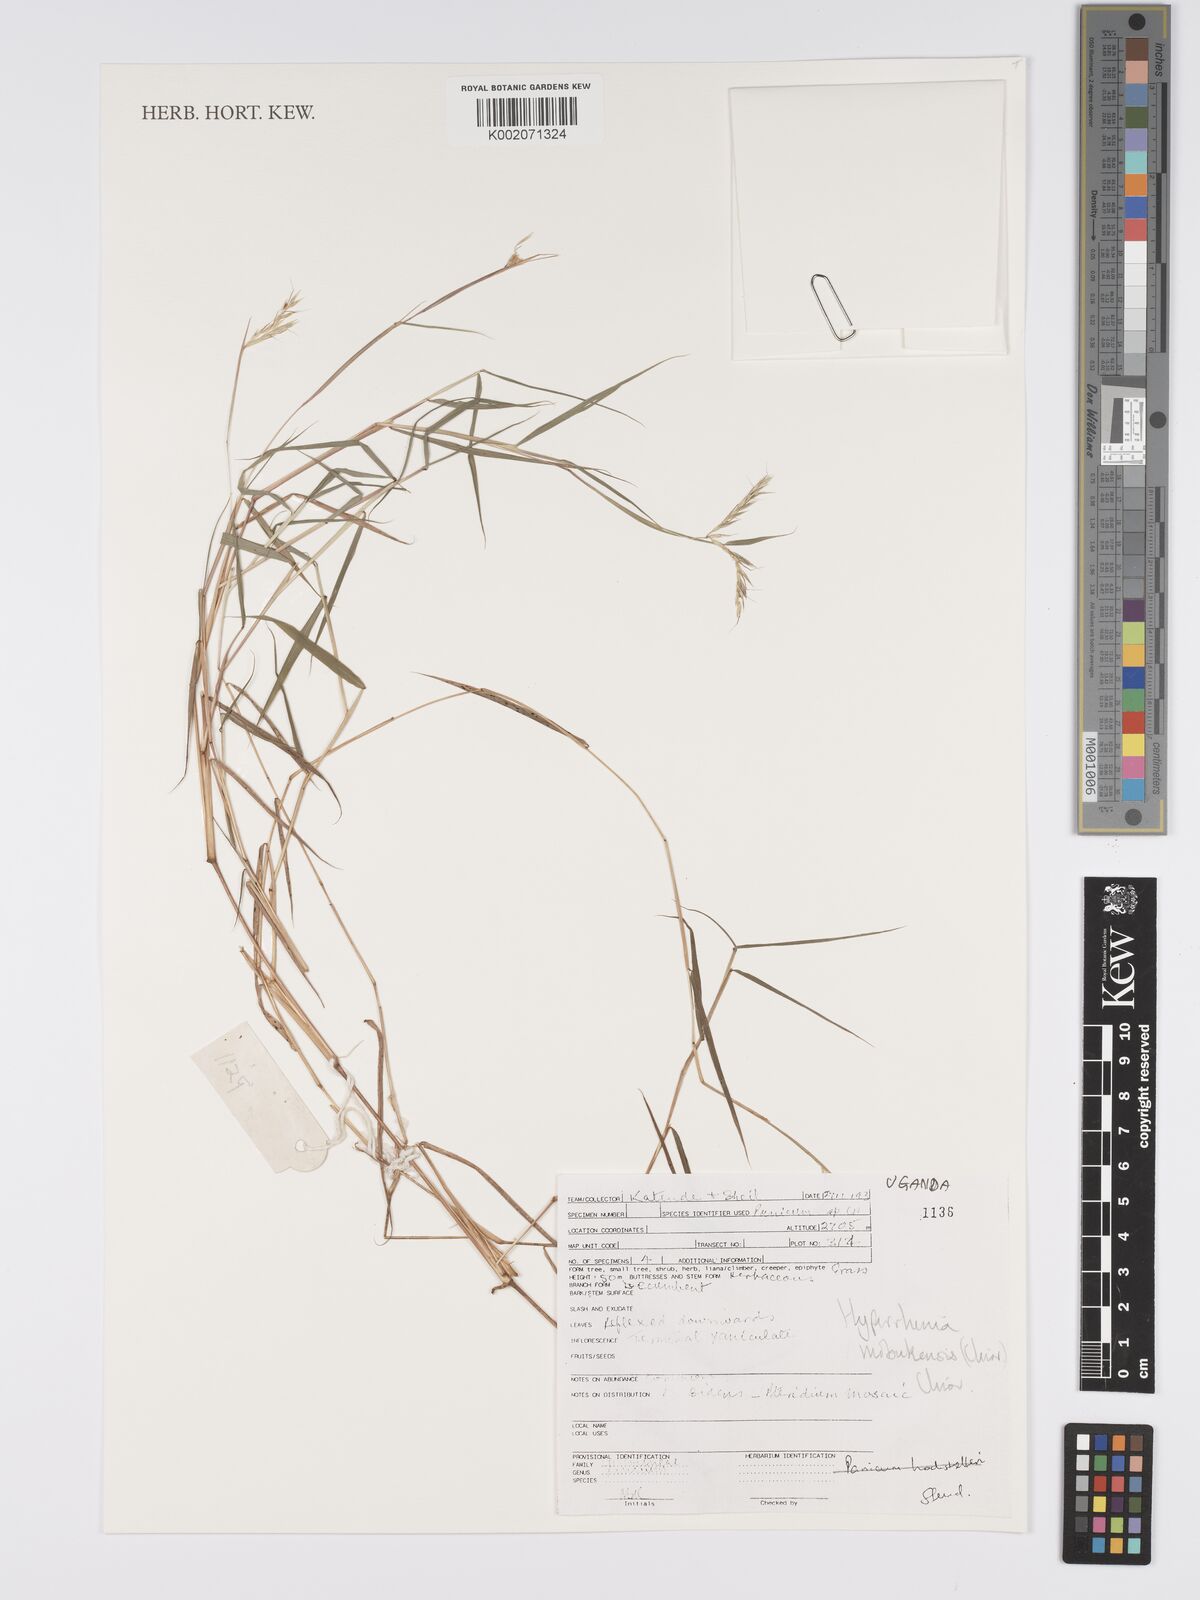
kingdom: Plantae
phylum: Tracheophyta
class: Liliopsida
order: Poales
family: Poaceae
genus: Hyparrhenia
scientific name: Hyparrhenia mobukensis
